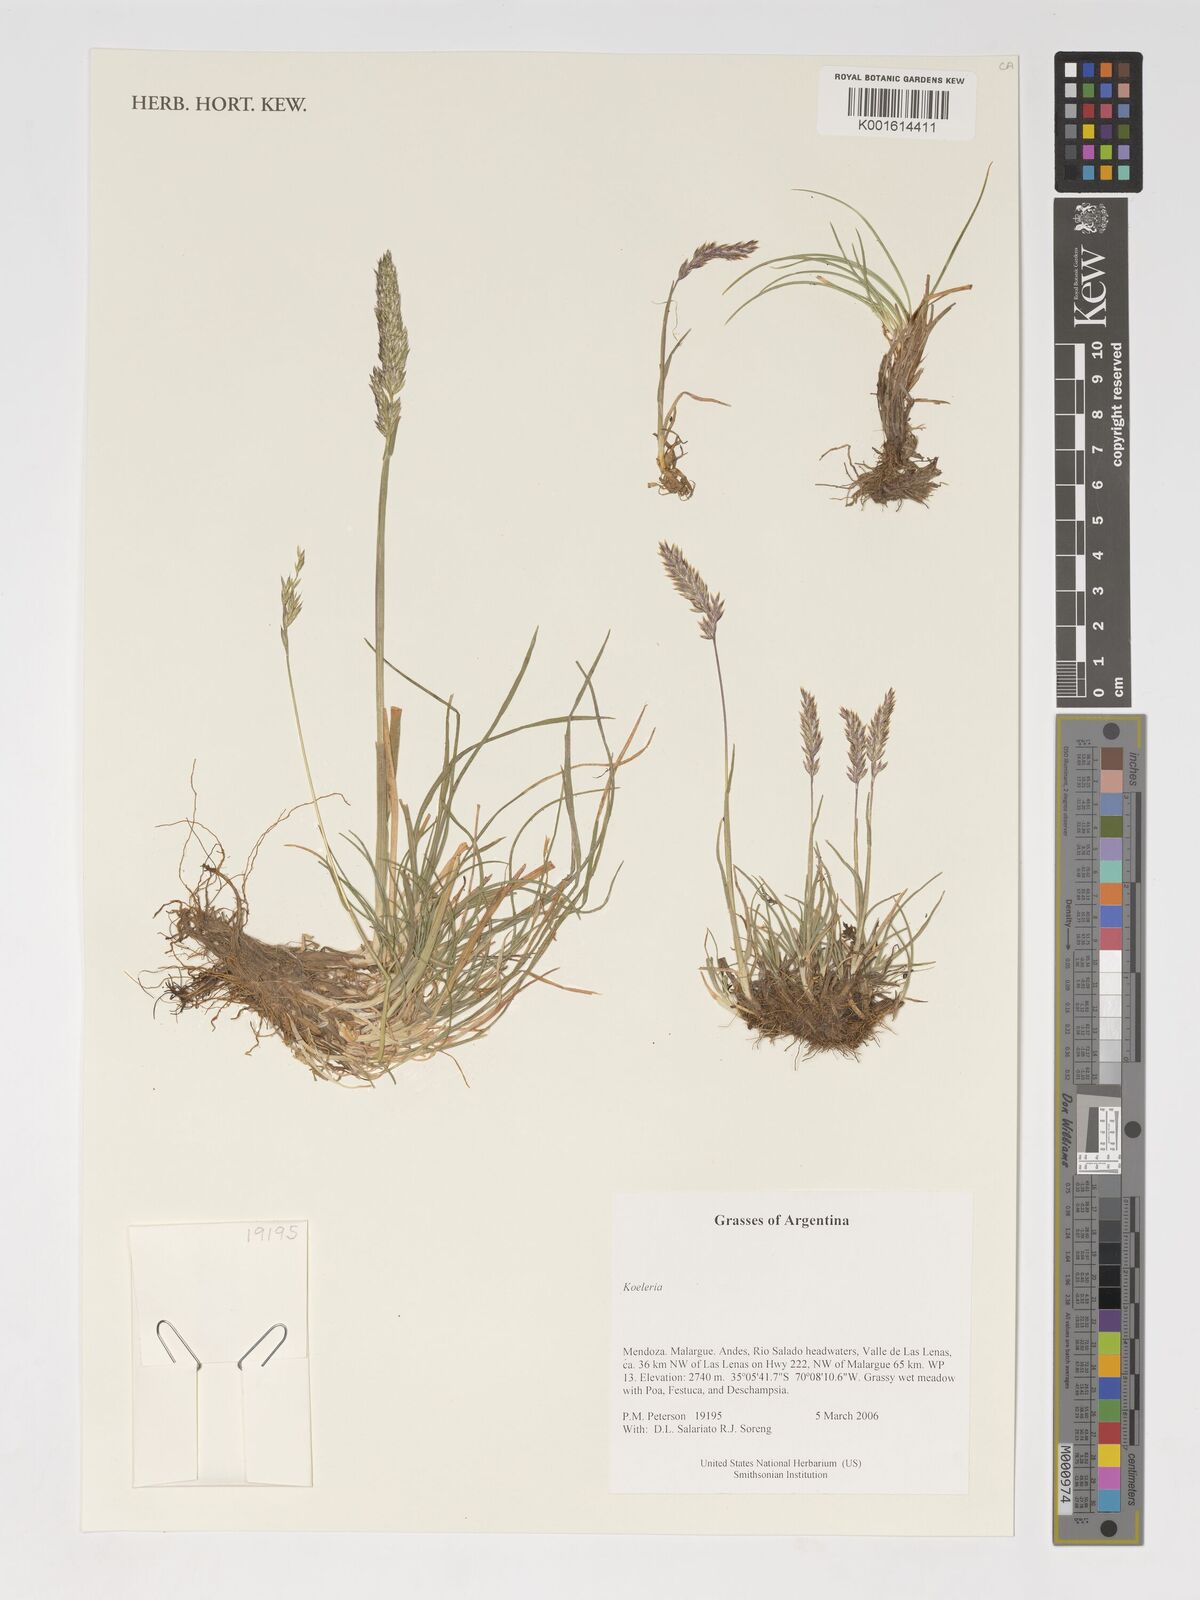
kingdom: Plantae
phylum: Tracheophyta
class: Liliopsida
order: Poales
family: Poaceae
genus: Koeleria
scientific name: Koeleria
